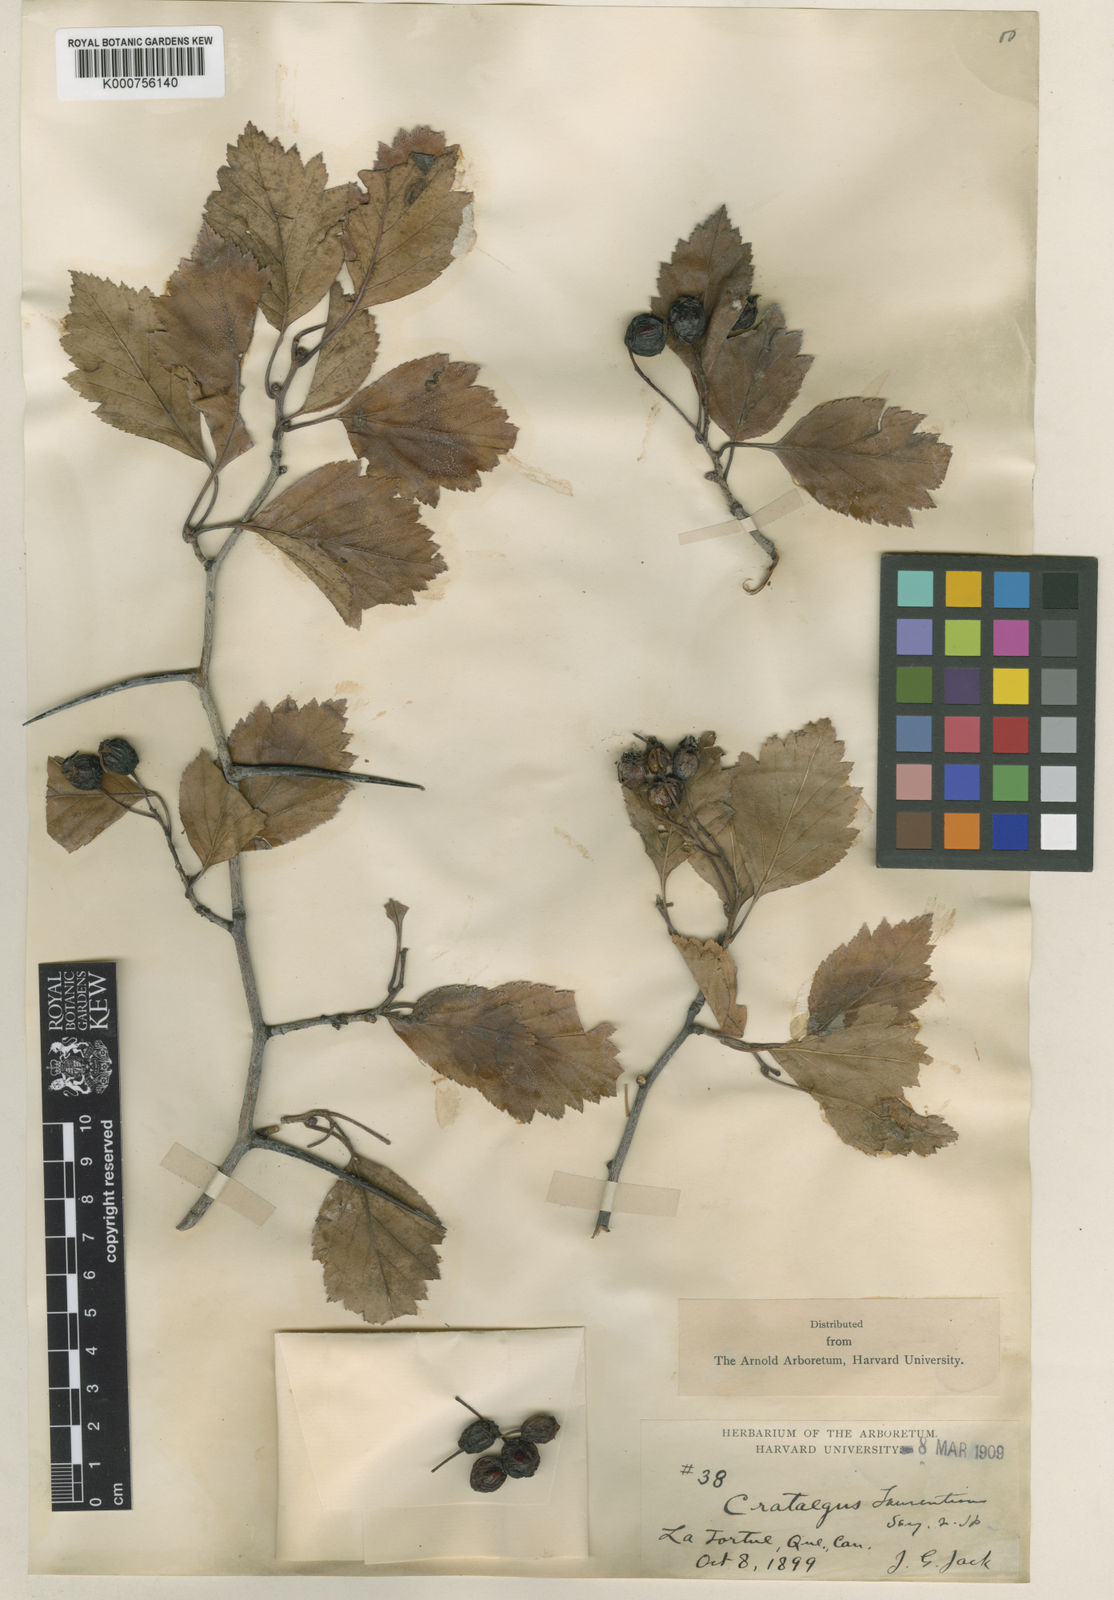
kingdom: Plantae
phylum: Tracheophyta
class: Magnoliopsida
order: Rosales
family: Rosaceae
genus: Crataegus
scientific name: Crataegus jonesiae
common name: Jones' hawthorn
